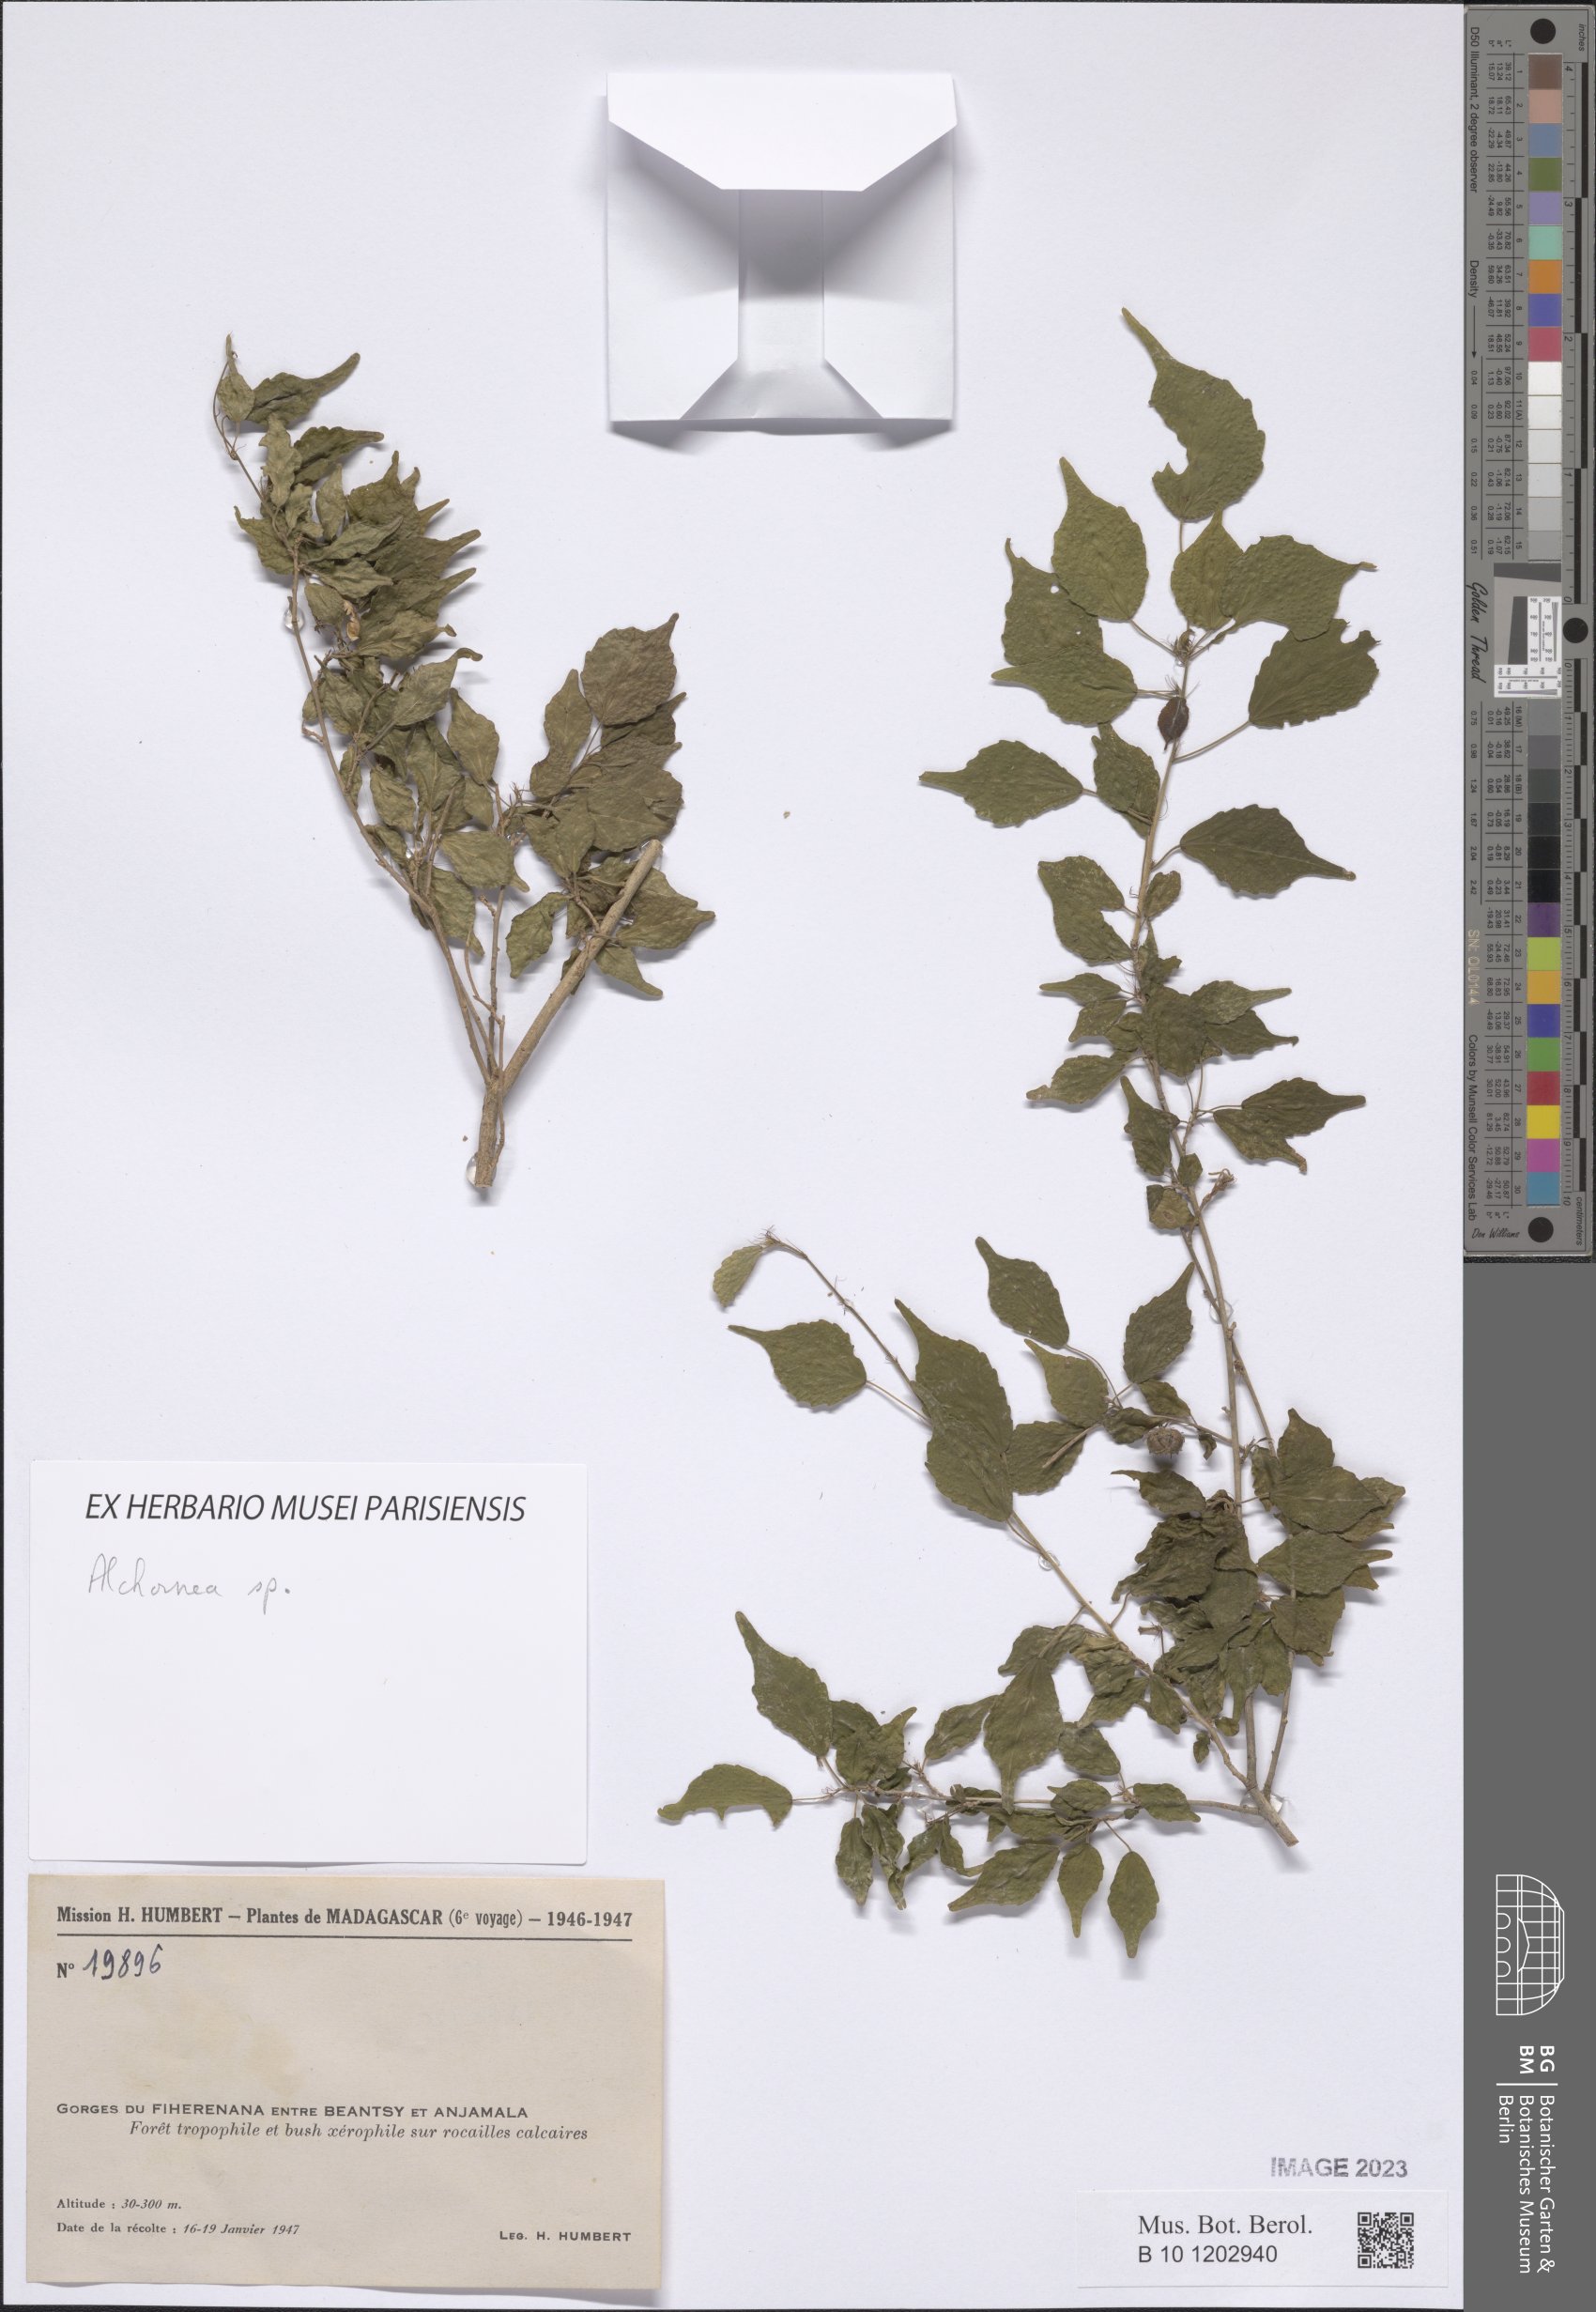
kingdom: Plantae
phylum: Tracheophyta
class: Magnoliopsida
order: Malpighiales
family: Euphorbiaceae
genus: Alchornea
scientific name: Alchornea
